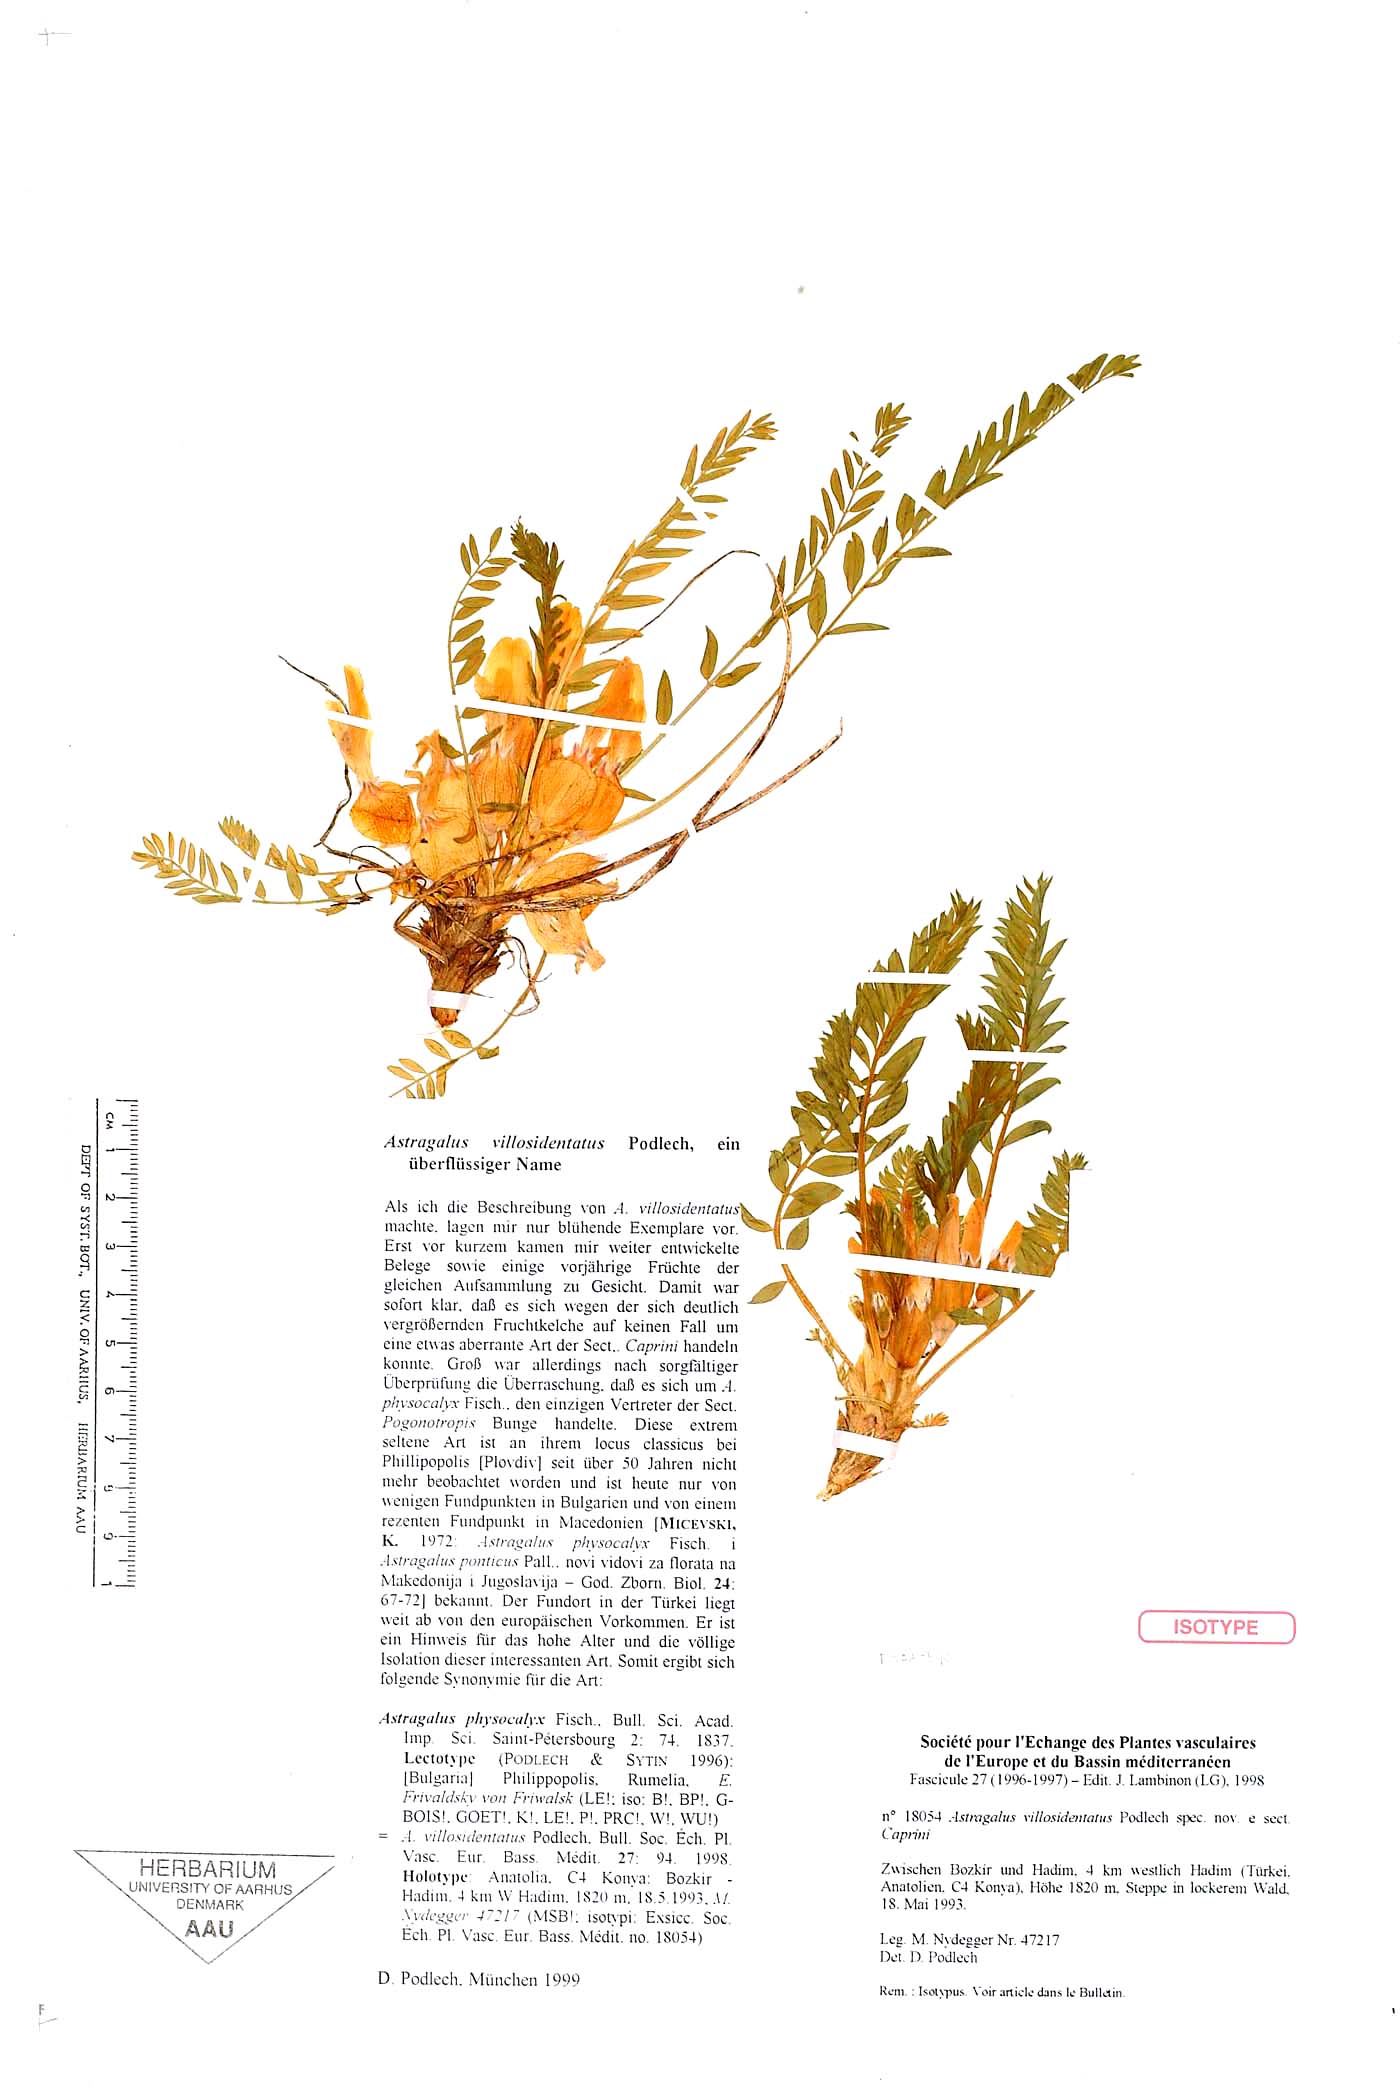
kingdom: Plantae
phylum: Tracheophyta
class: Magnoliopsida
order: Fabales
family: Fabaceae
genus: Astragalus
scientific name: Astragalus physocalyx
